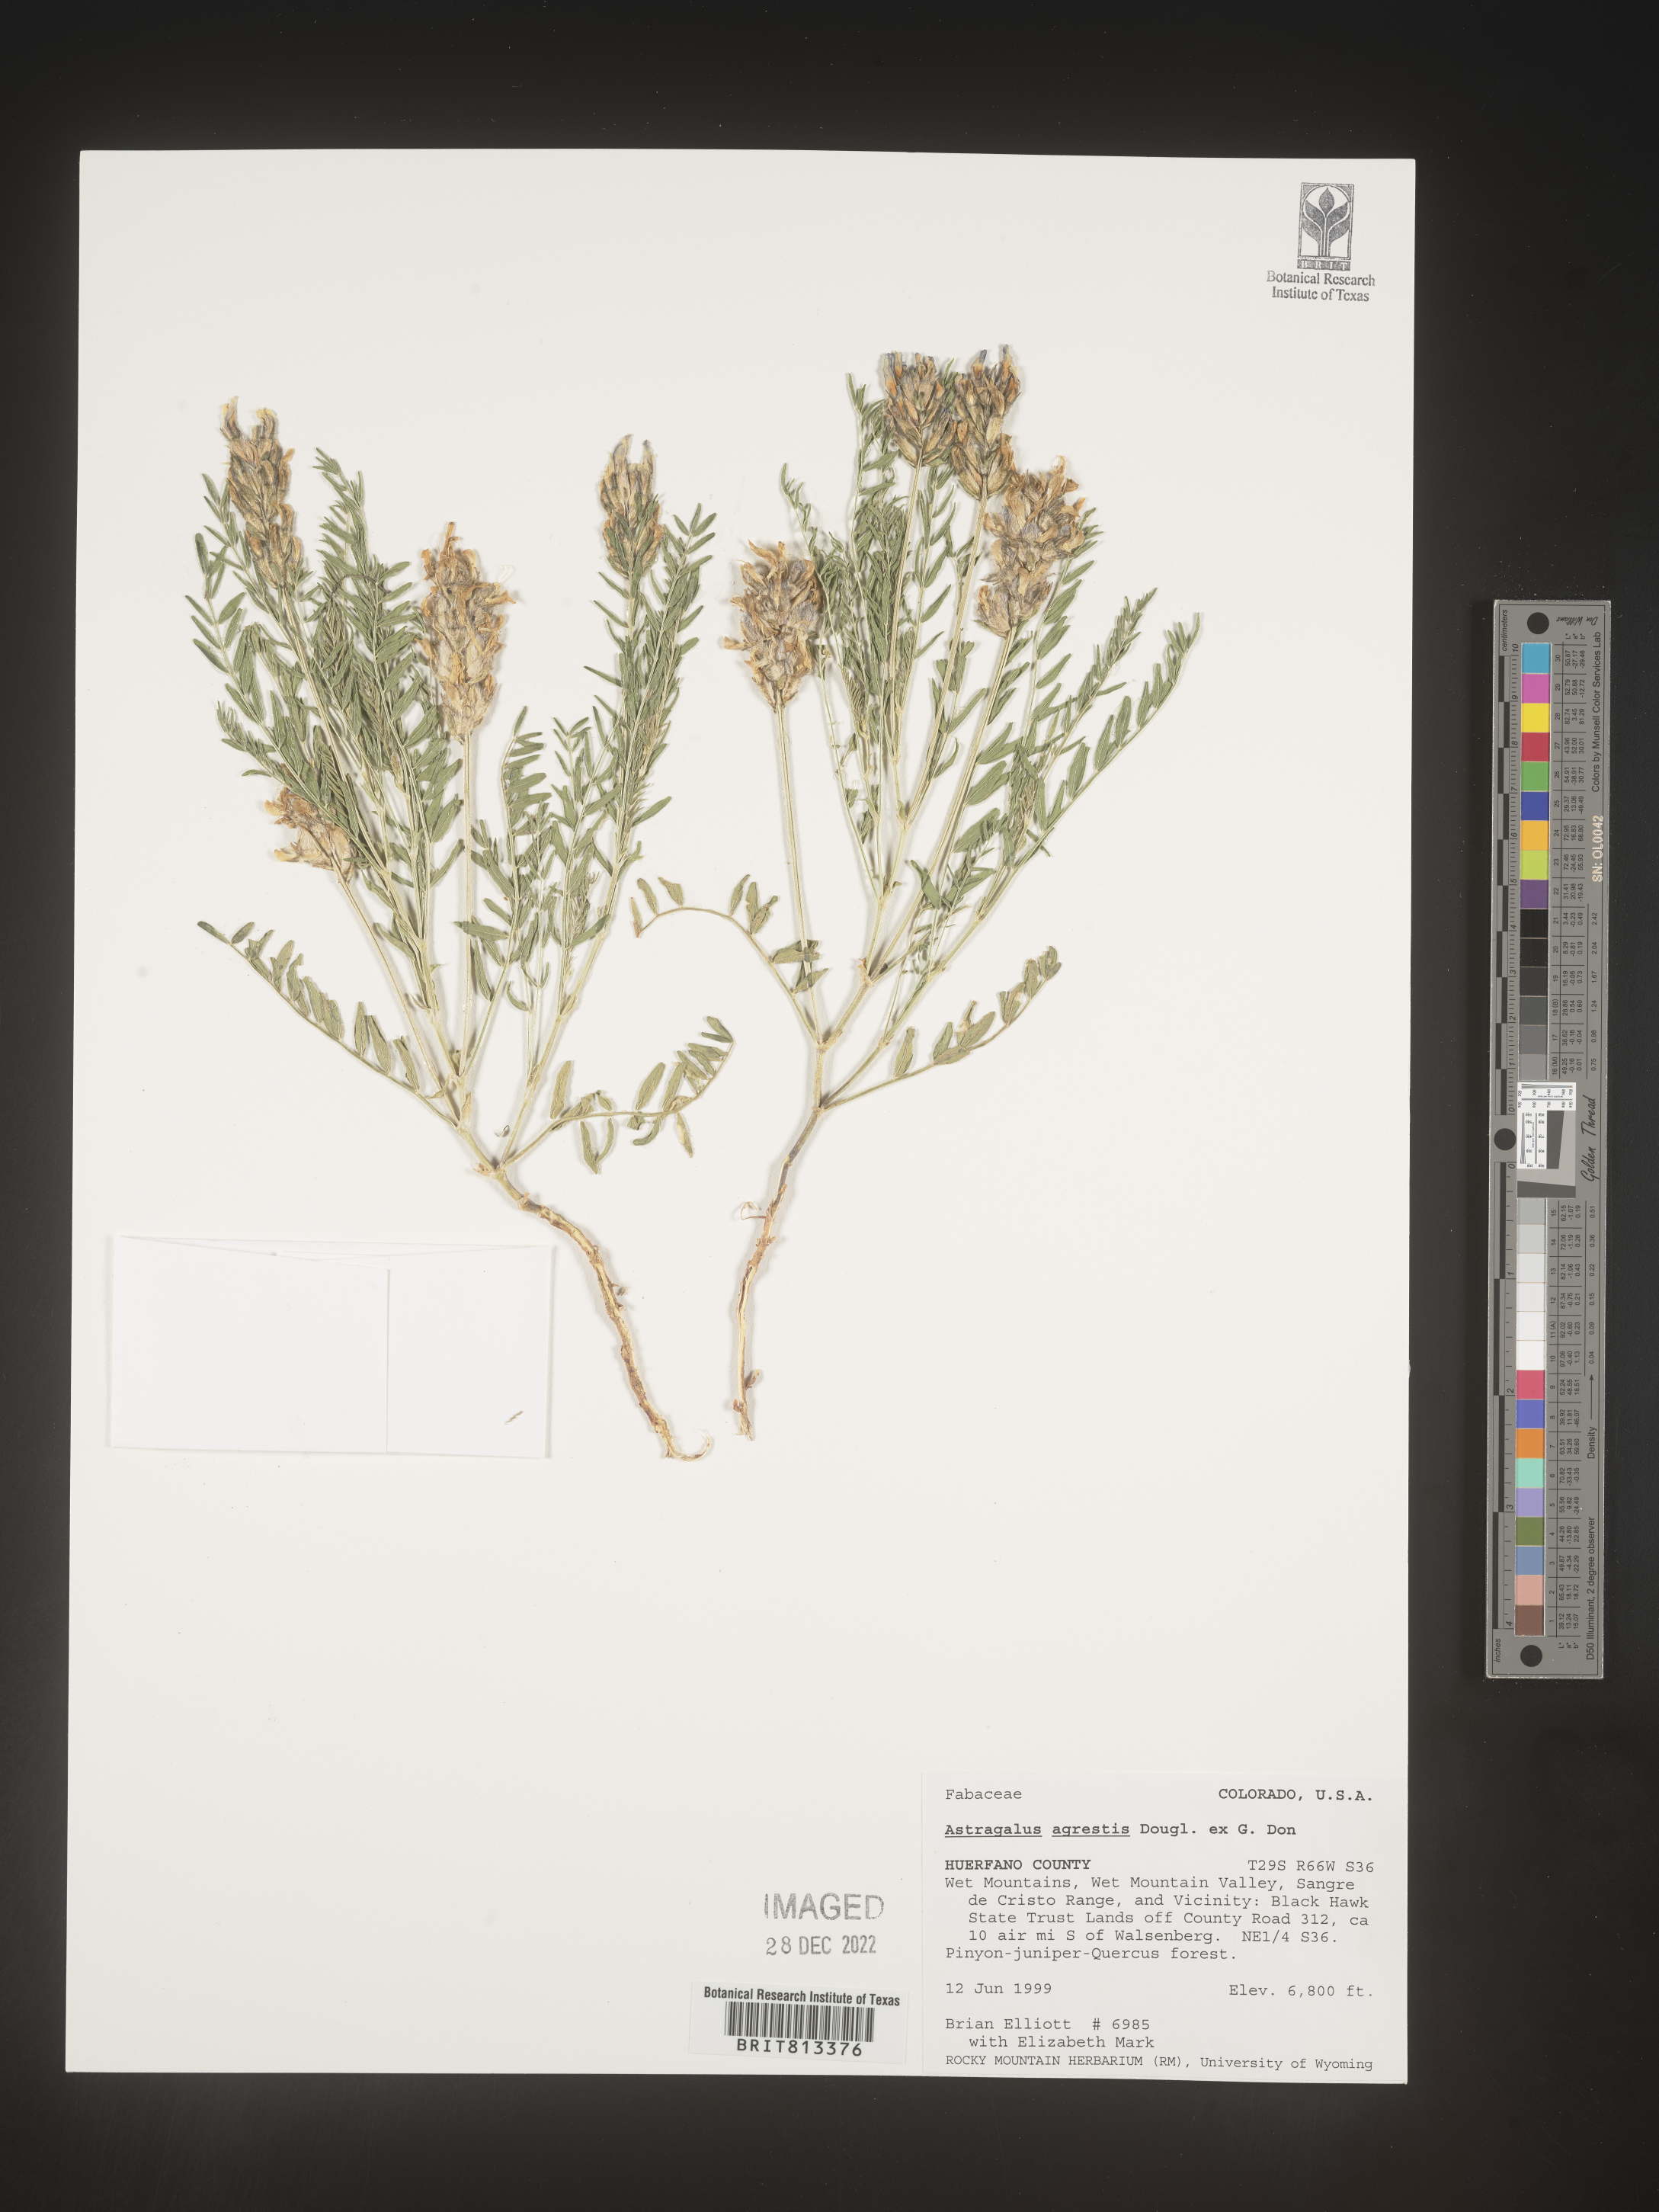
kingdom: Plantae
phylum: Tracheophyta
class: Magnoliopsida
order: Fabales
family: Fabaceae
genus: Astragalus
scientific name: Astragalus agrestis
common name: Field milk-vetch
